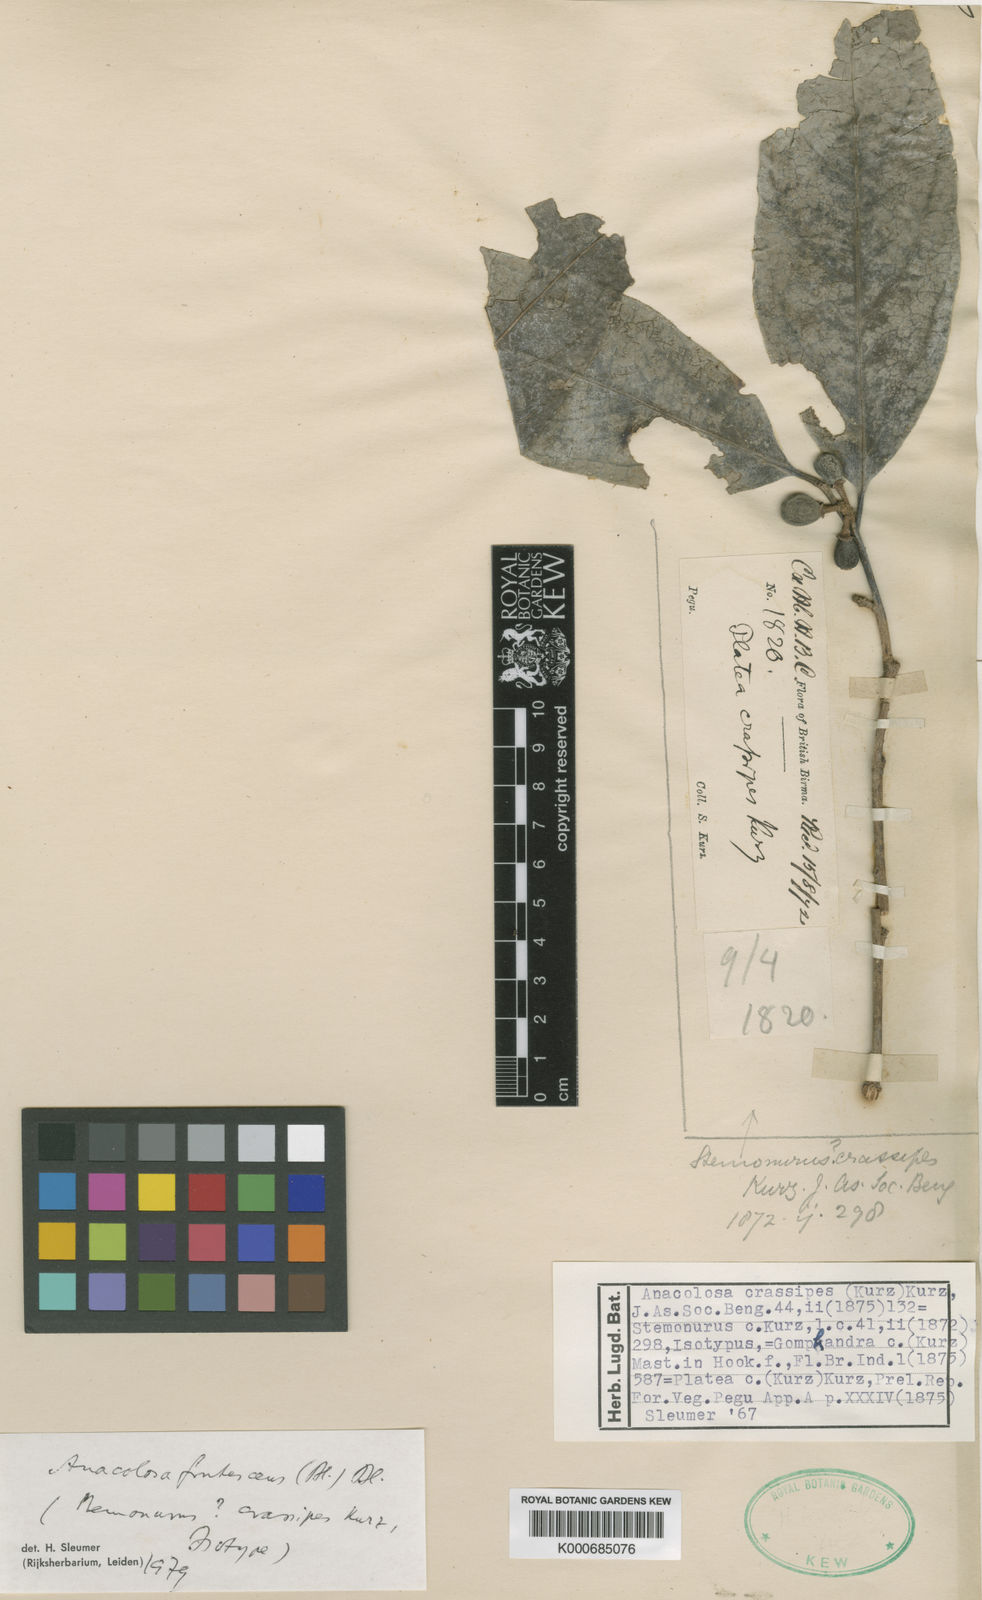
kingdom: Plantae
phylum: Tracheophyta
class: Magnoliopsida
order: Santalales
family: Aptandraceae
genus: Anacolosa
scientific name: Anacolosa frutescens
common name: Galo nut
